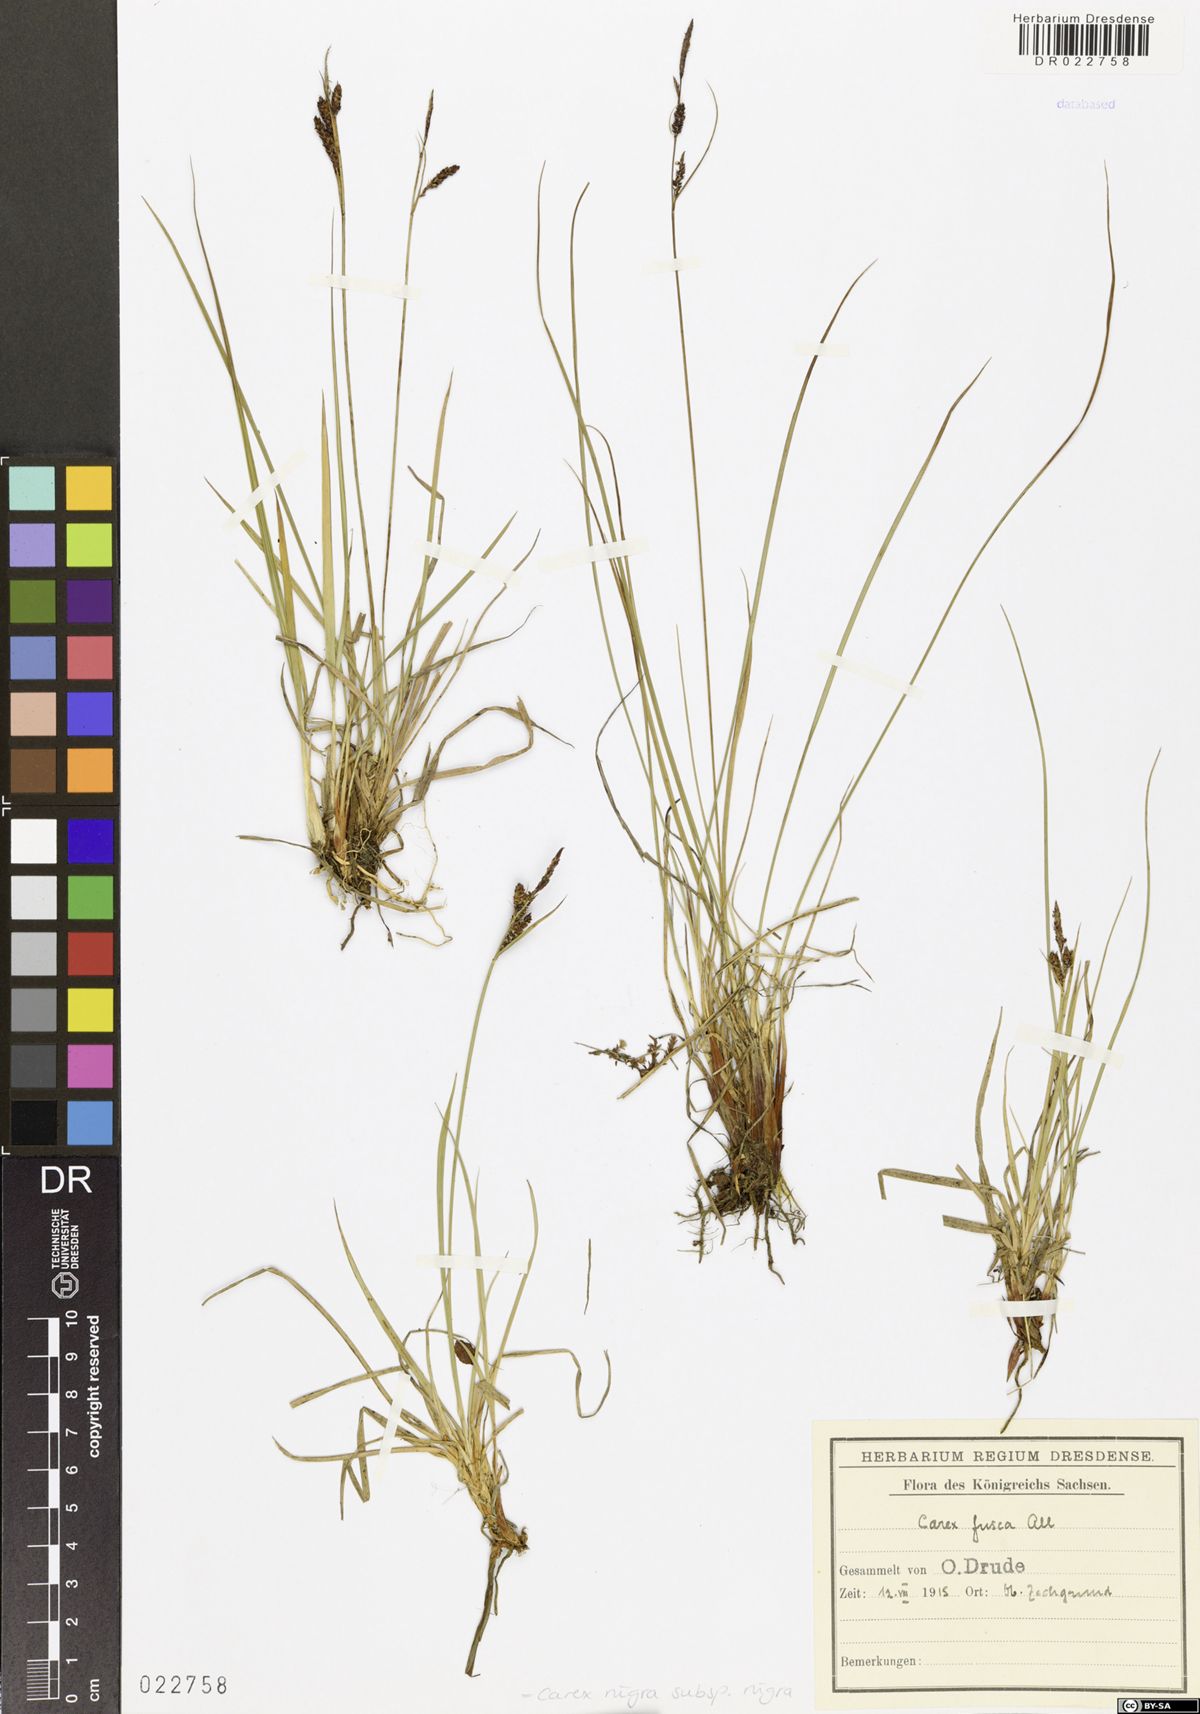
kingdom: Plantae
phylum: Tracheophyta
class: Liliopsida
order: Poales
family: Cyperaceae
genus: Carex
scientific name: Carex nigra
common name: Common sedge
